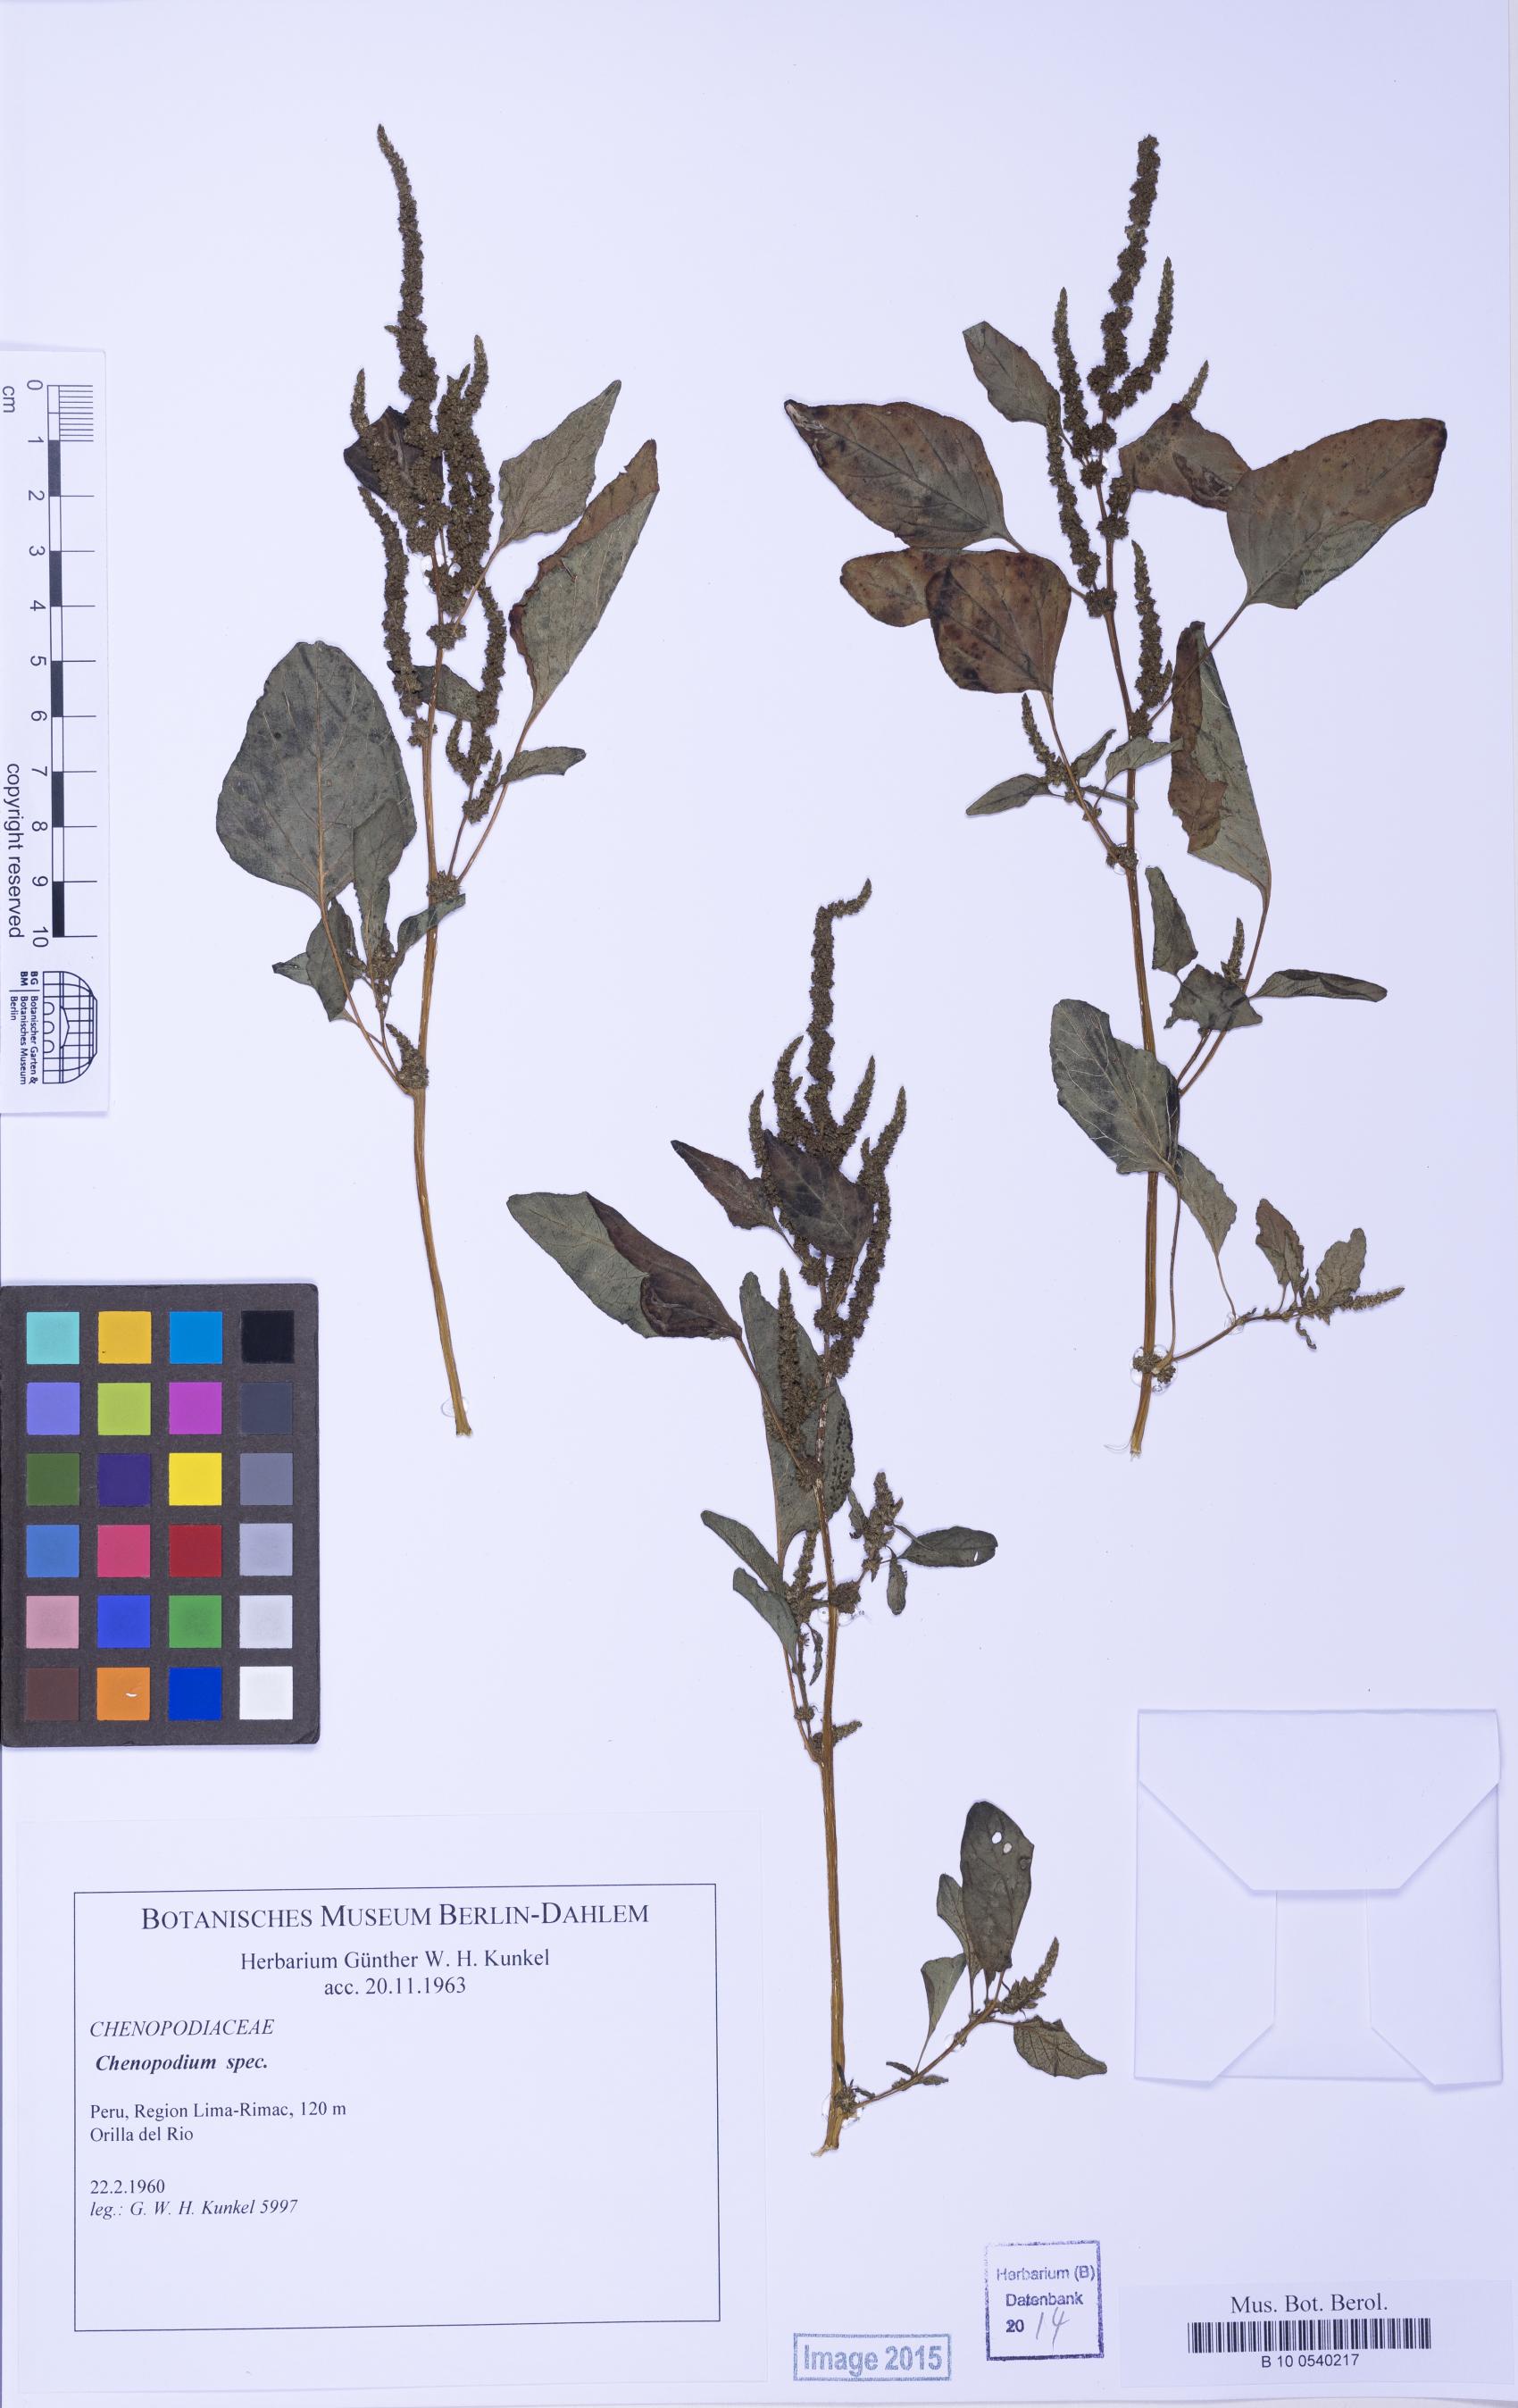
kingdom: Plantae
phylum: Tracheophyta
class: Magnoliopsida
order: Caryophyllales
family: Amaranthaceae
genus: Amaranthus
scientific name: Amaranthus
